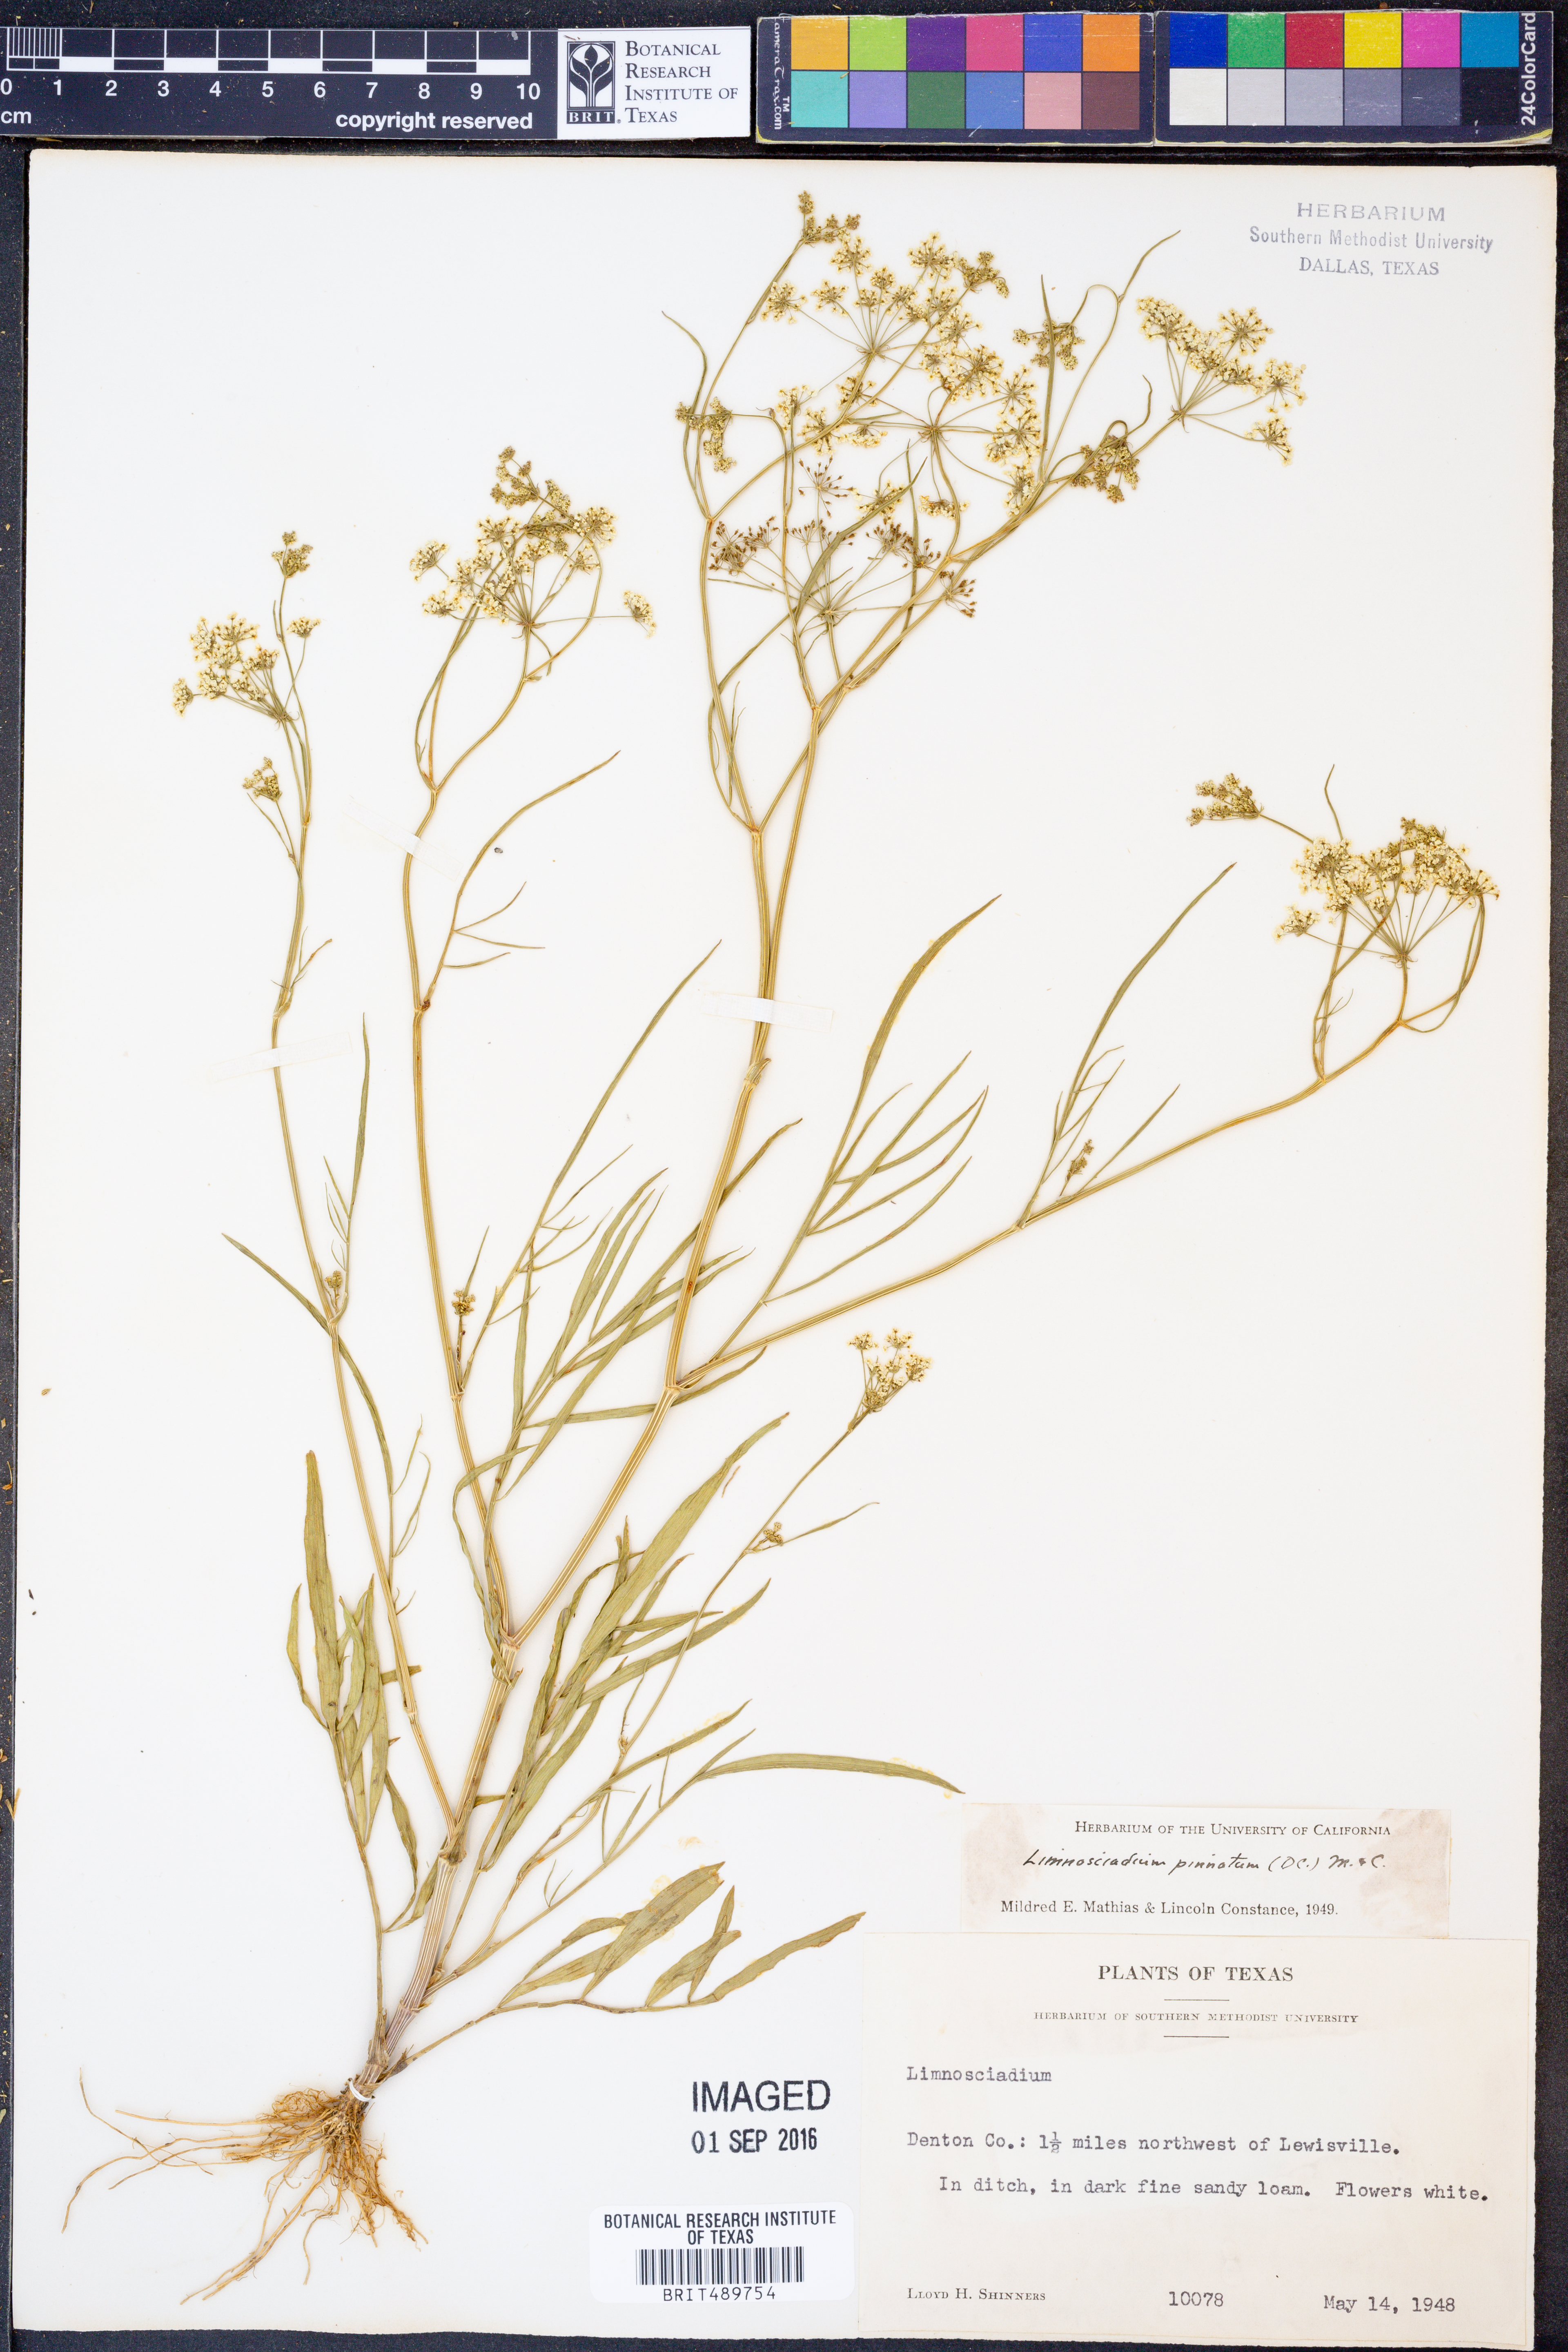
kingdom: Plantae
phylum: Tracheophyta
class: Magnoliopsida
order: Apiales
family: Apiaceae
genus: Limnosciadium
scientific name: Limnosciadium pinnatum
